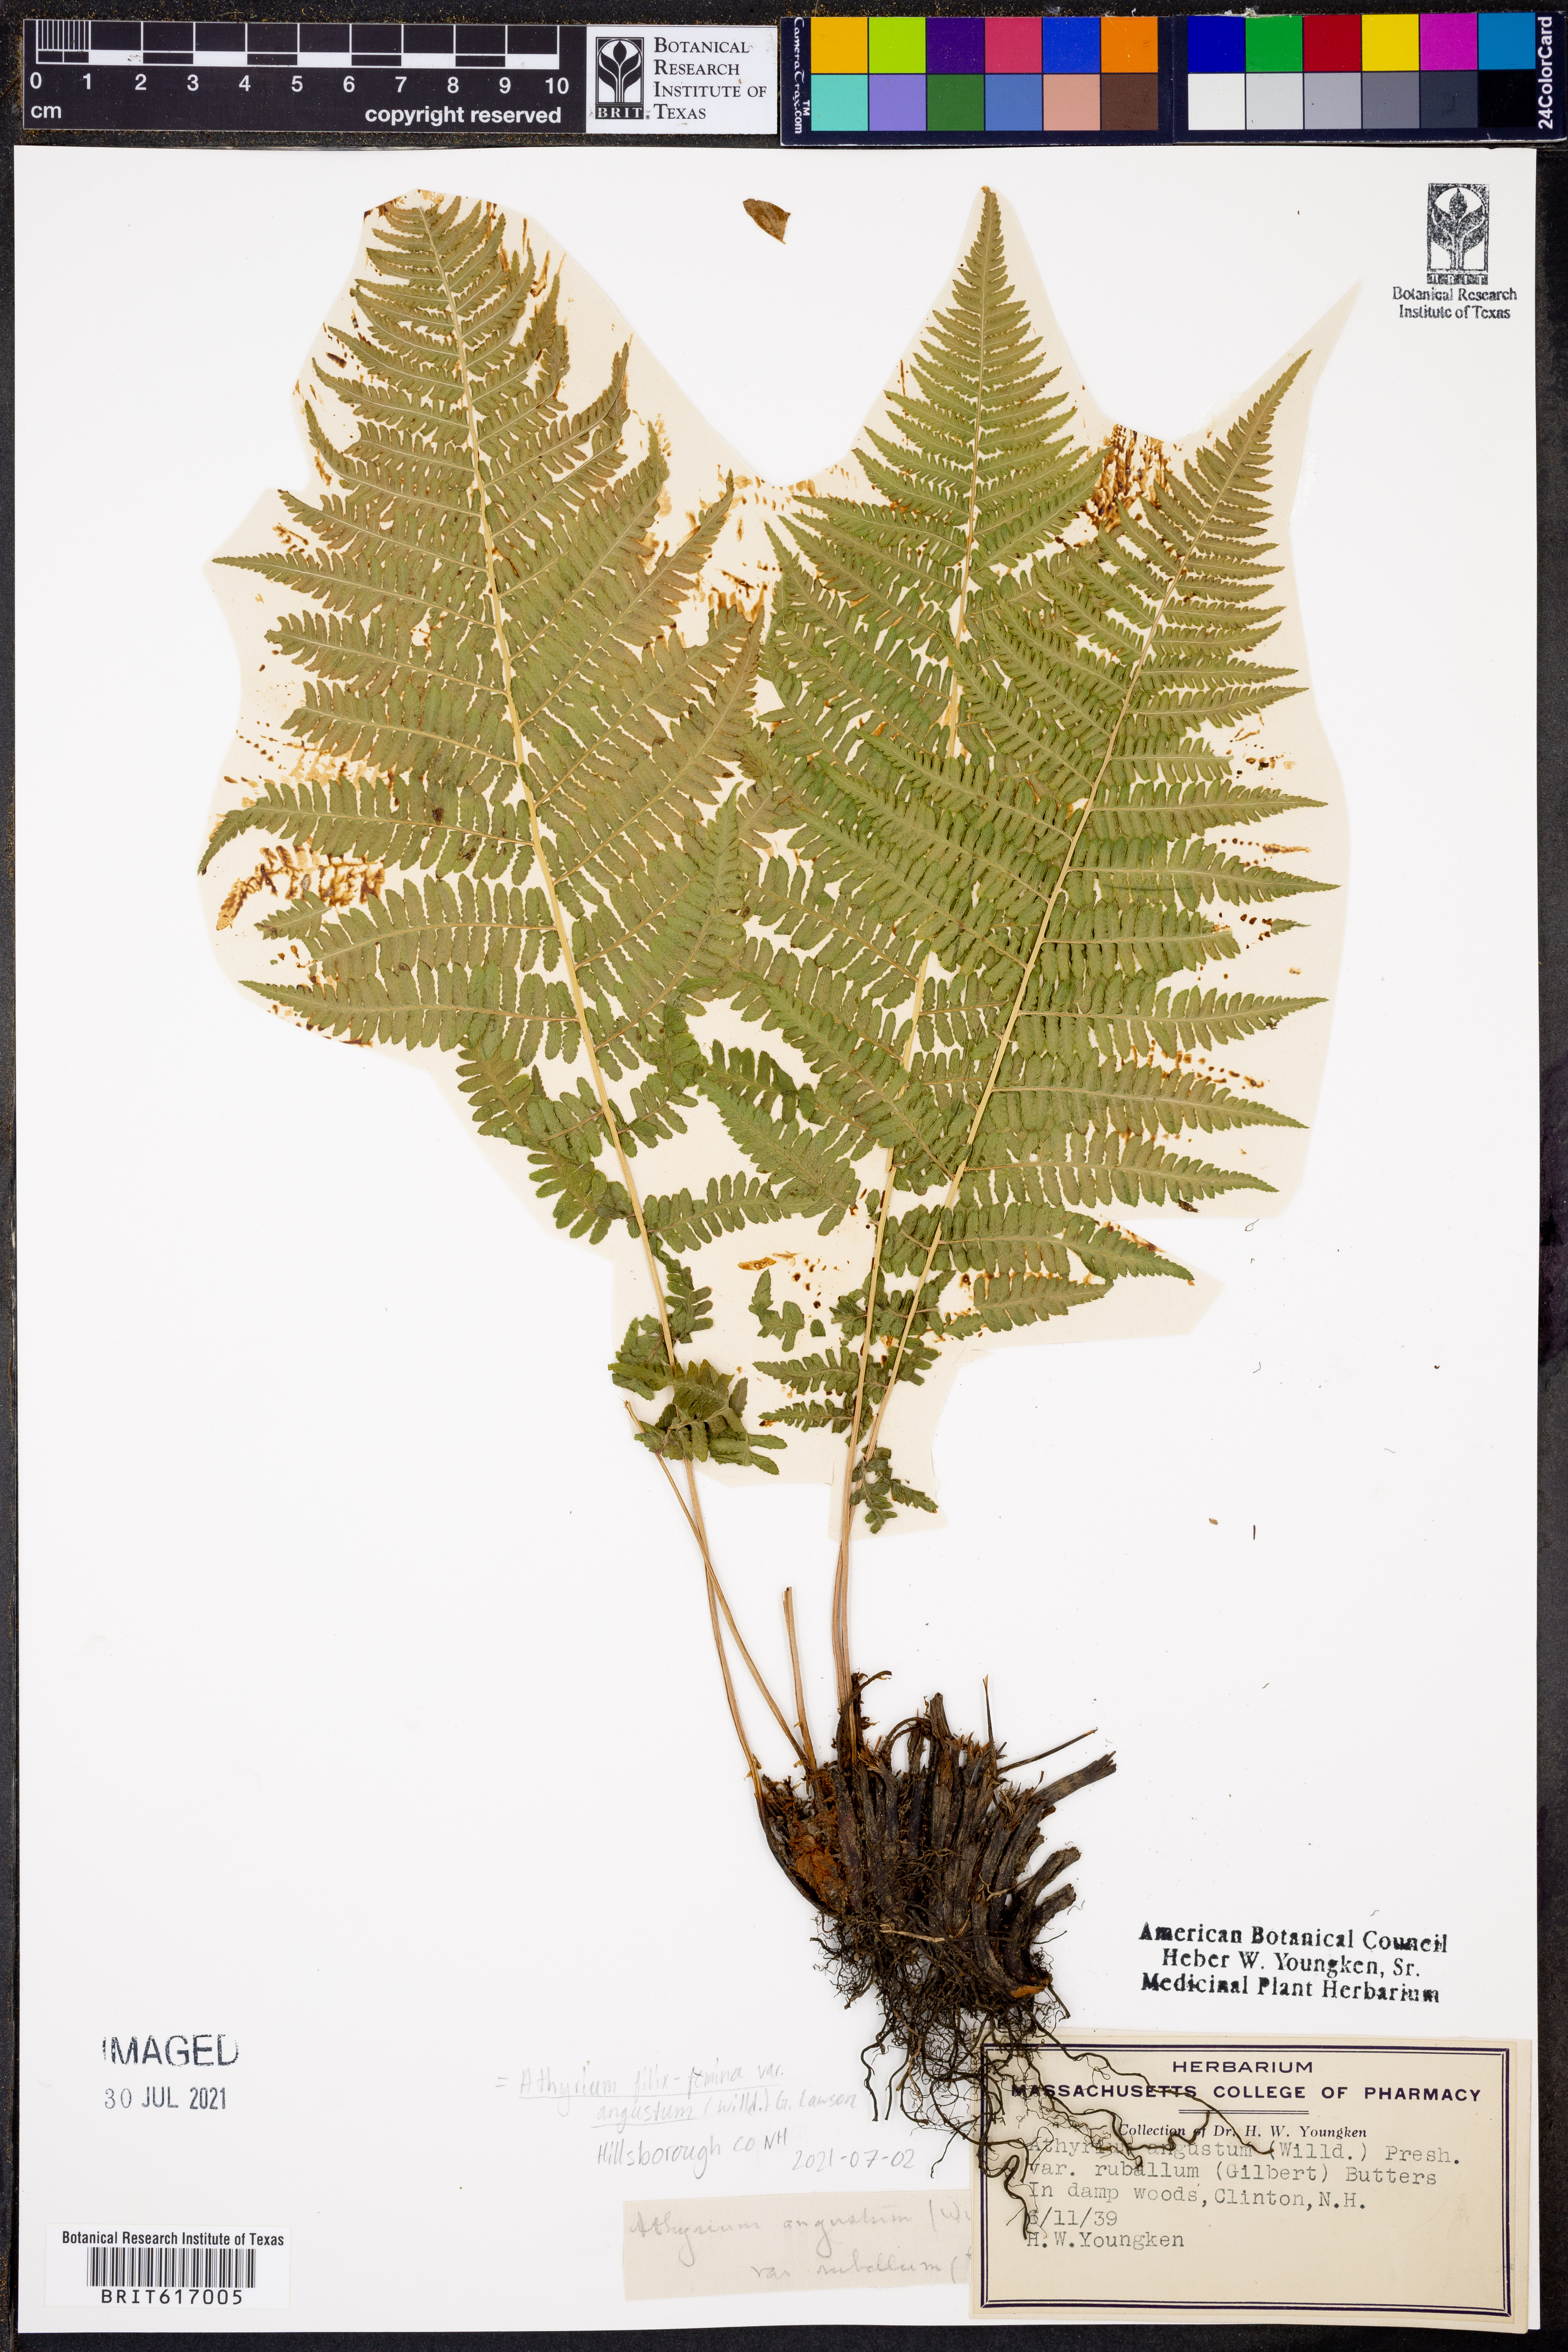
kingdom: Plantae
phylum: Tracheophyta
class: Polypodiopsida
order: Polypodiales
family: Athyriaceae
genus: Athyrium
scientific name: Athyrium angustum
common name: Northern lady fern
